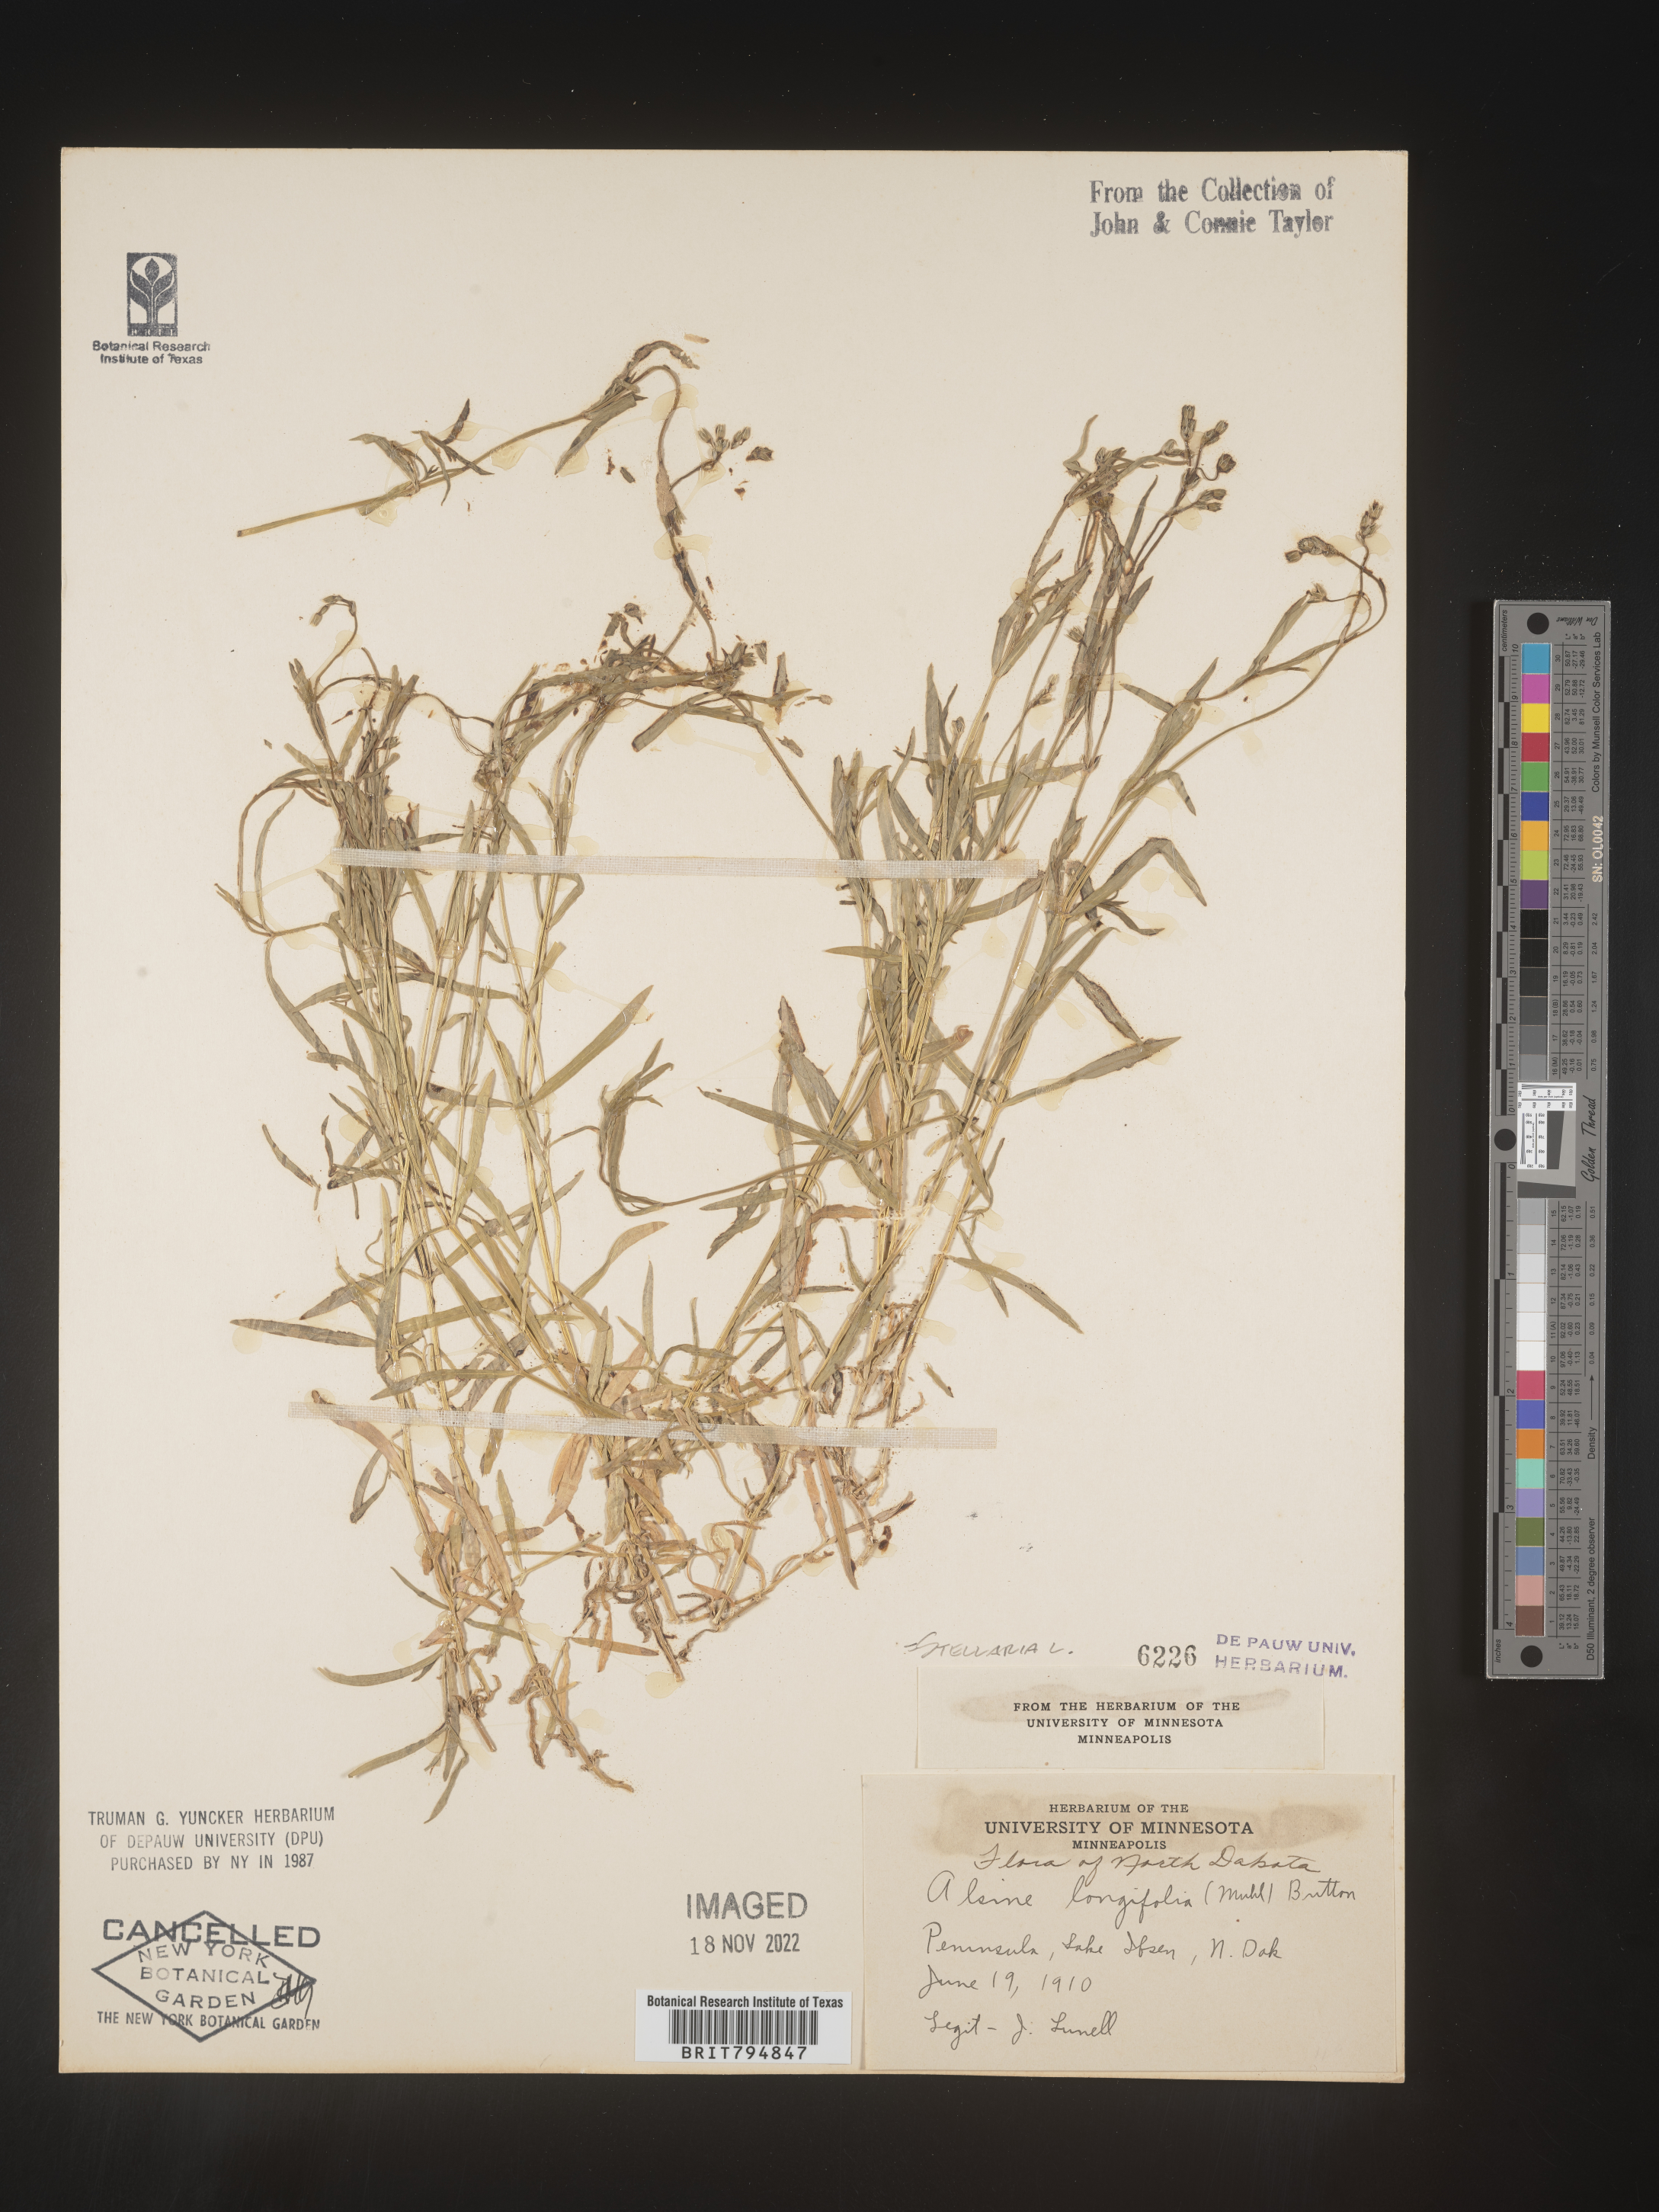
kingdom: Plantae
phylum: Tracheophyta
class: Magnoliopsida
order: Caryophyllales
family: Caryophyllaceae
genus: Stellaria
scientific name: Stellaria longifolia
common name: Long-leaved chickweed
